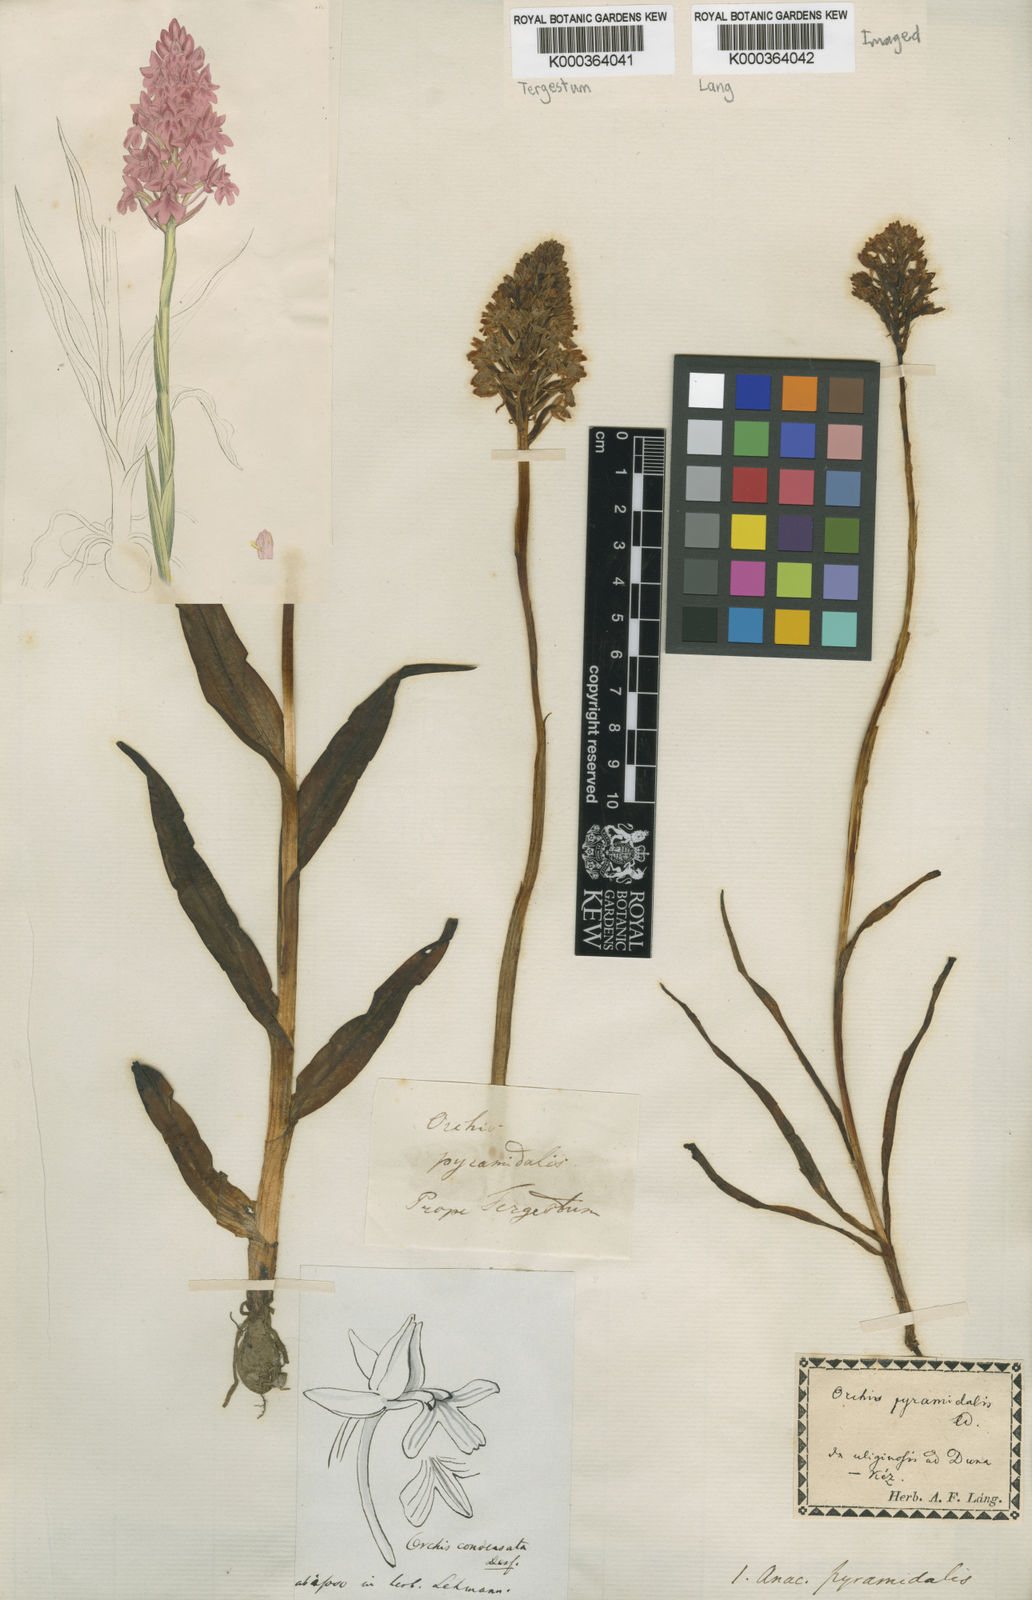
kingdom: Plantae
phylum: Tracheophyta
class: Liliopsida
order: Asparagales
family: Orchidaceae
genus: Anacamptis
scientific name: Anacamptis pyramidalis
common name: Pyramidal orchid
